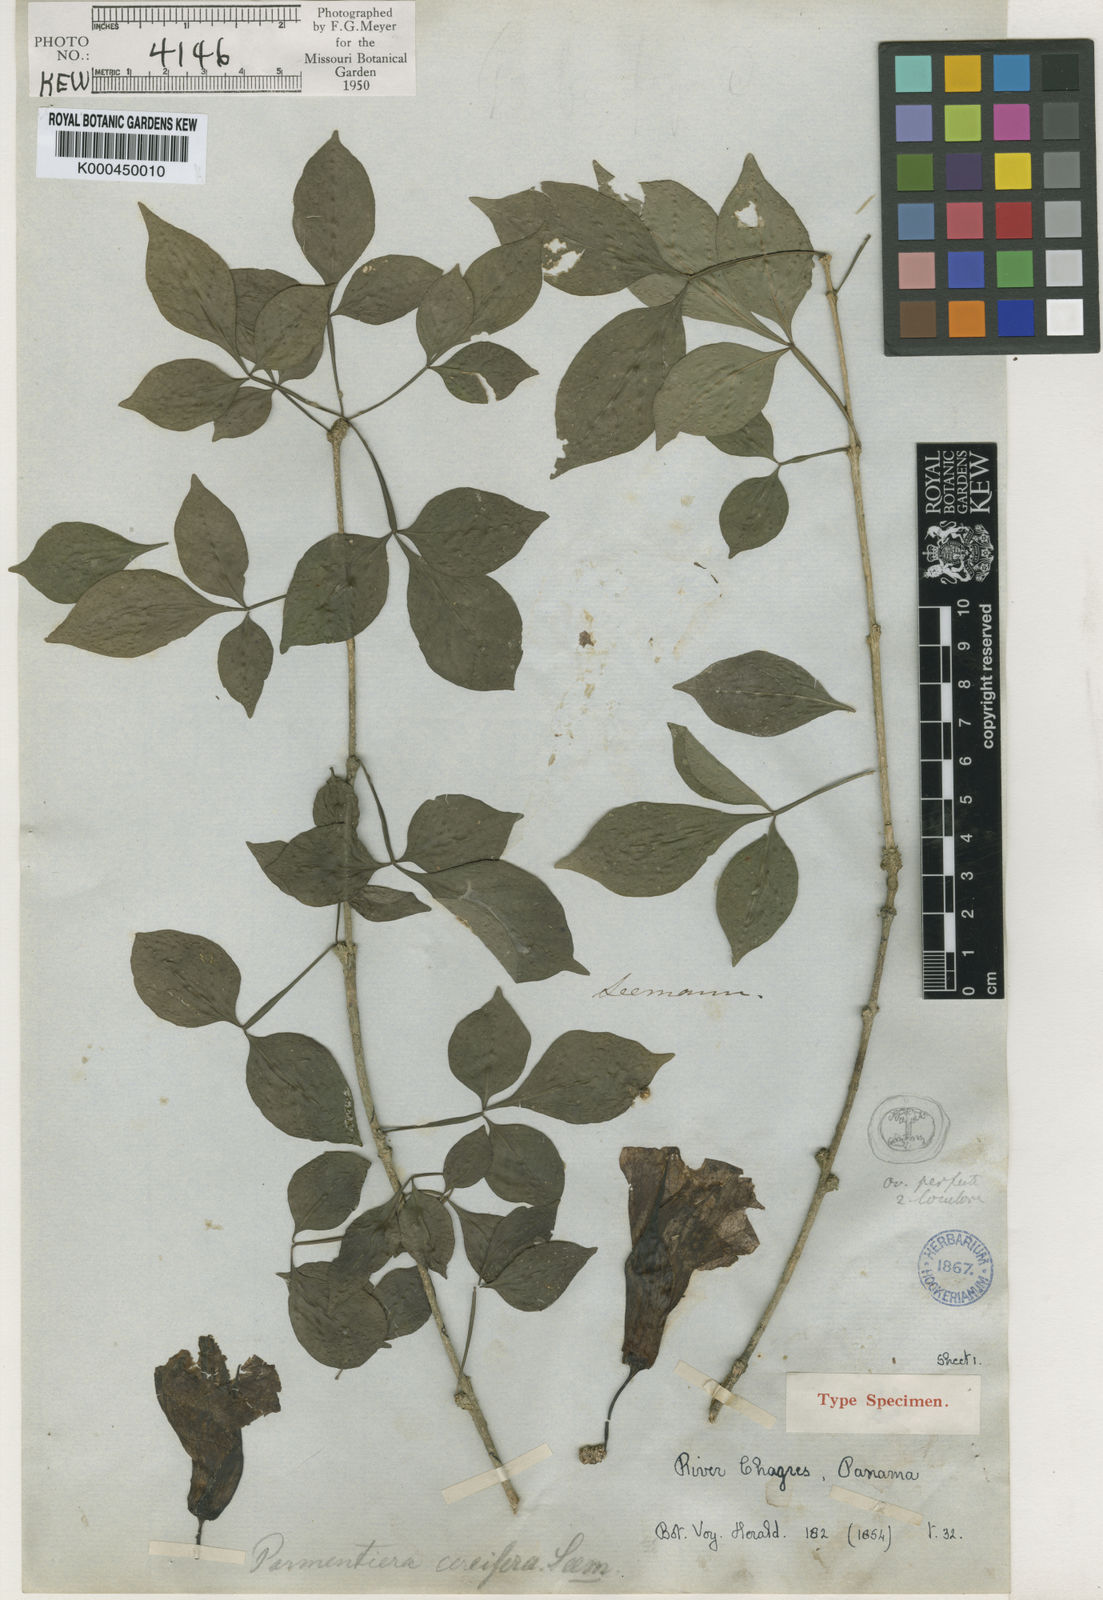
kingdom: Plantae
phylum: Tracheophyta
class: Magnoliopsida
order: Lamiales
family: Bignoniaceae
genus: Parmentiera
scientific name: Parmentiera cereifera
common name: Candletree
